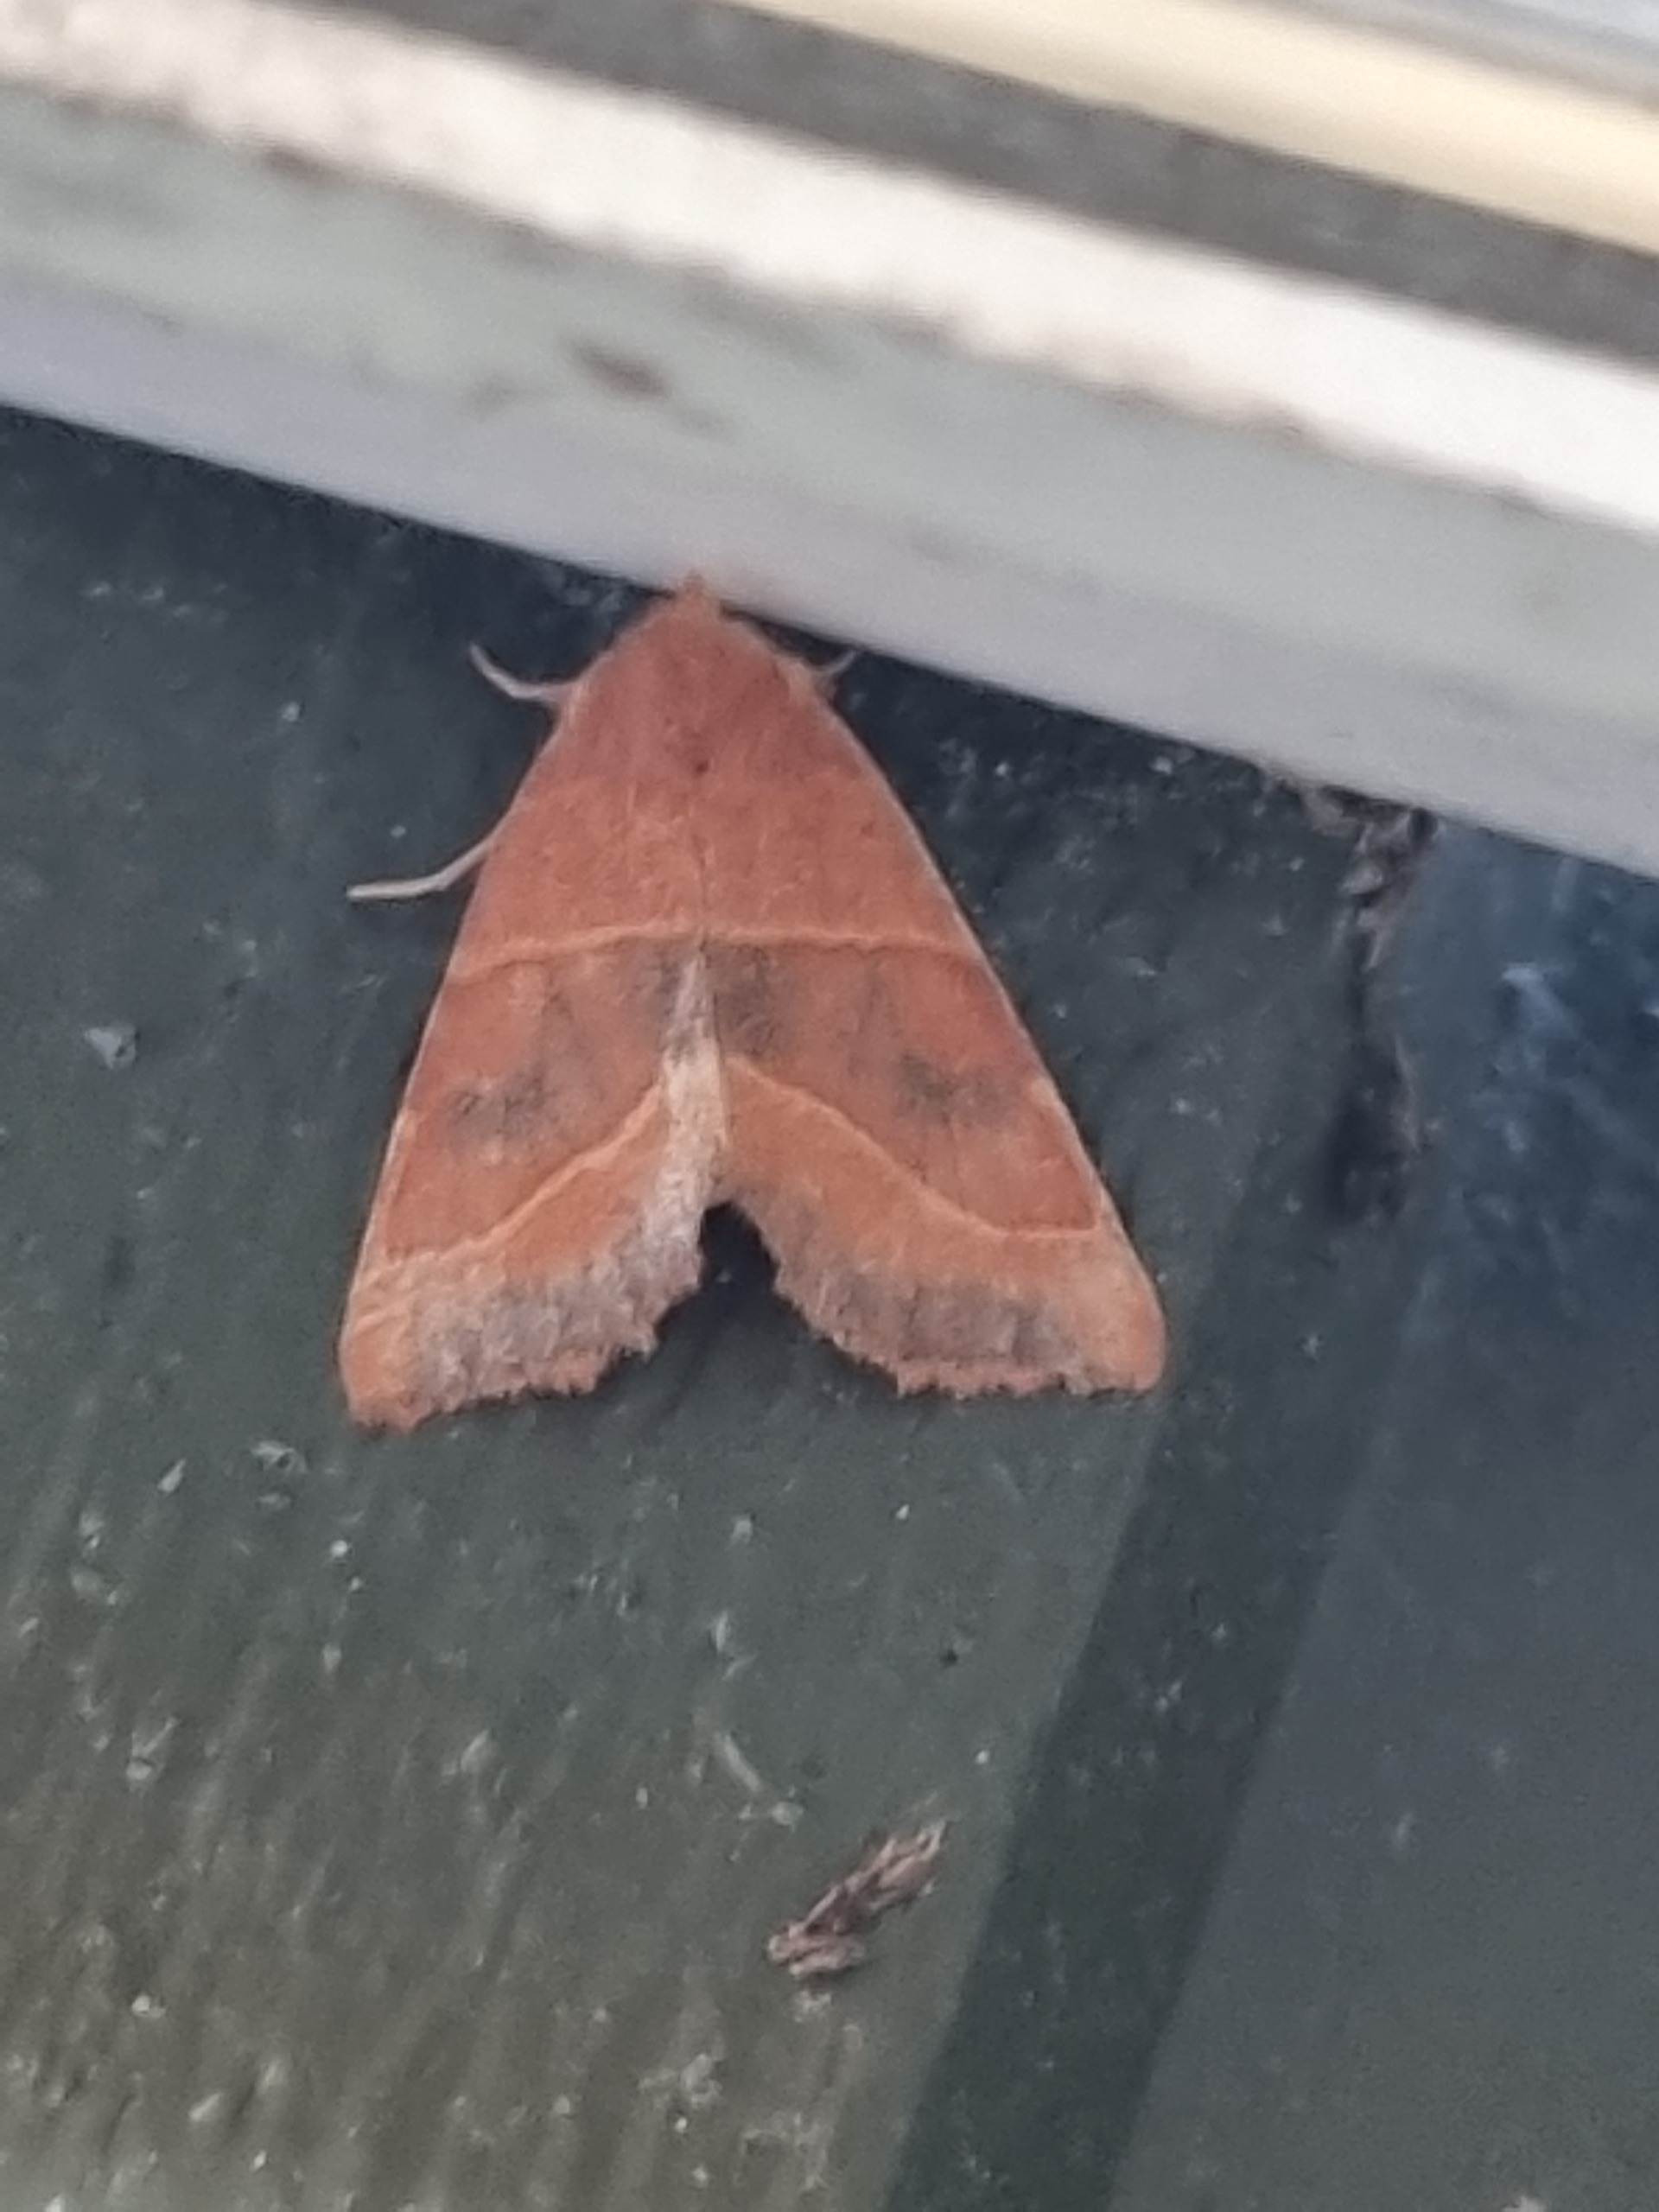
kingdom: Animalia
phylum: Arthropoda
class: Insecta
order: Lepidoptera
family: Noctuidae
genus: Atethmia
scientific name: Atethmia centrago
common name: Aske-septemberugle
